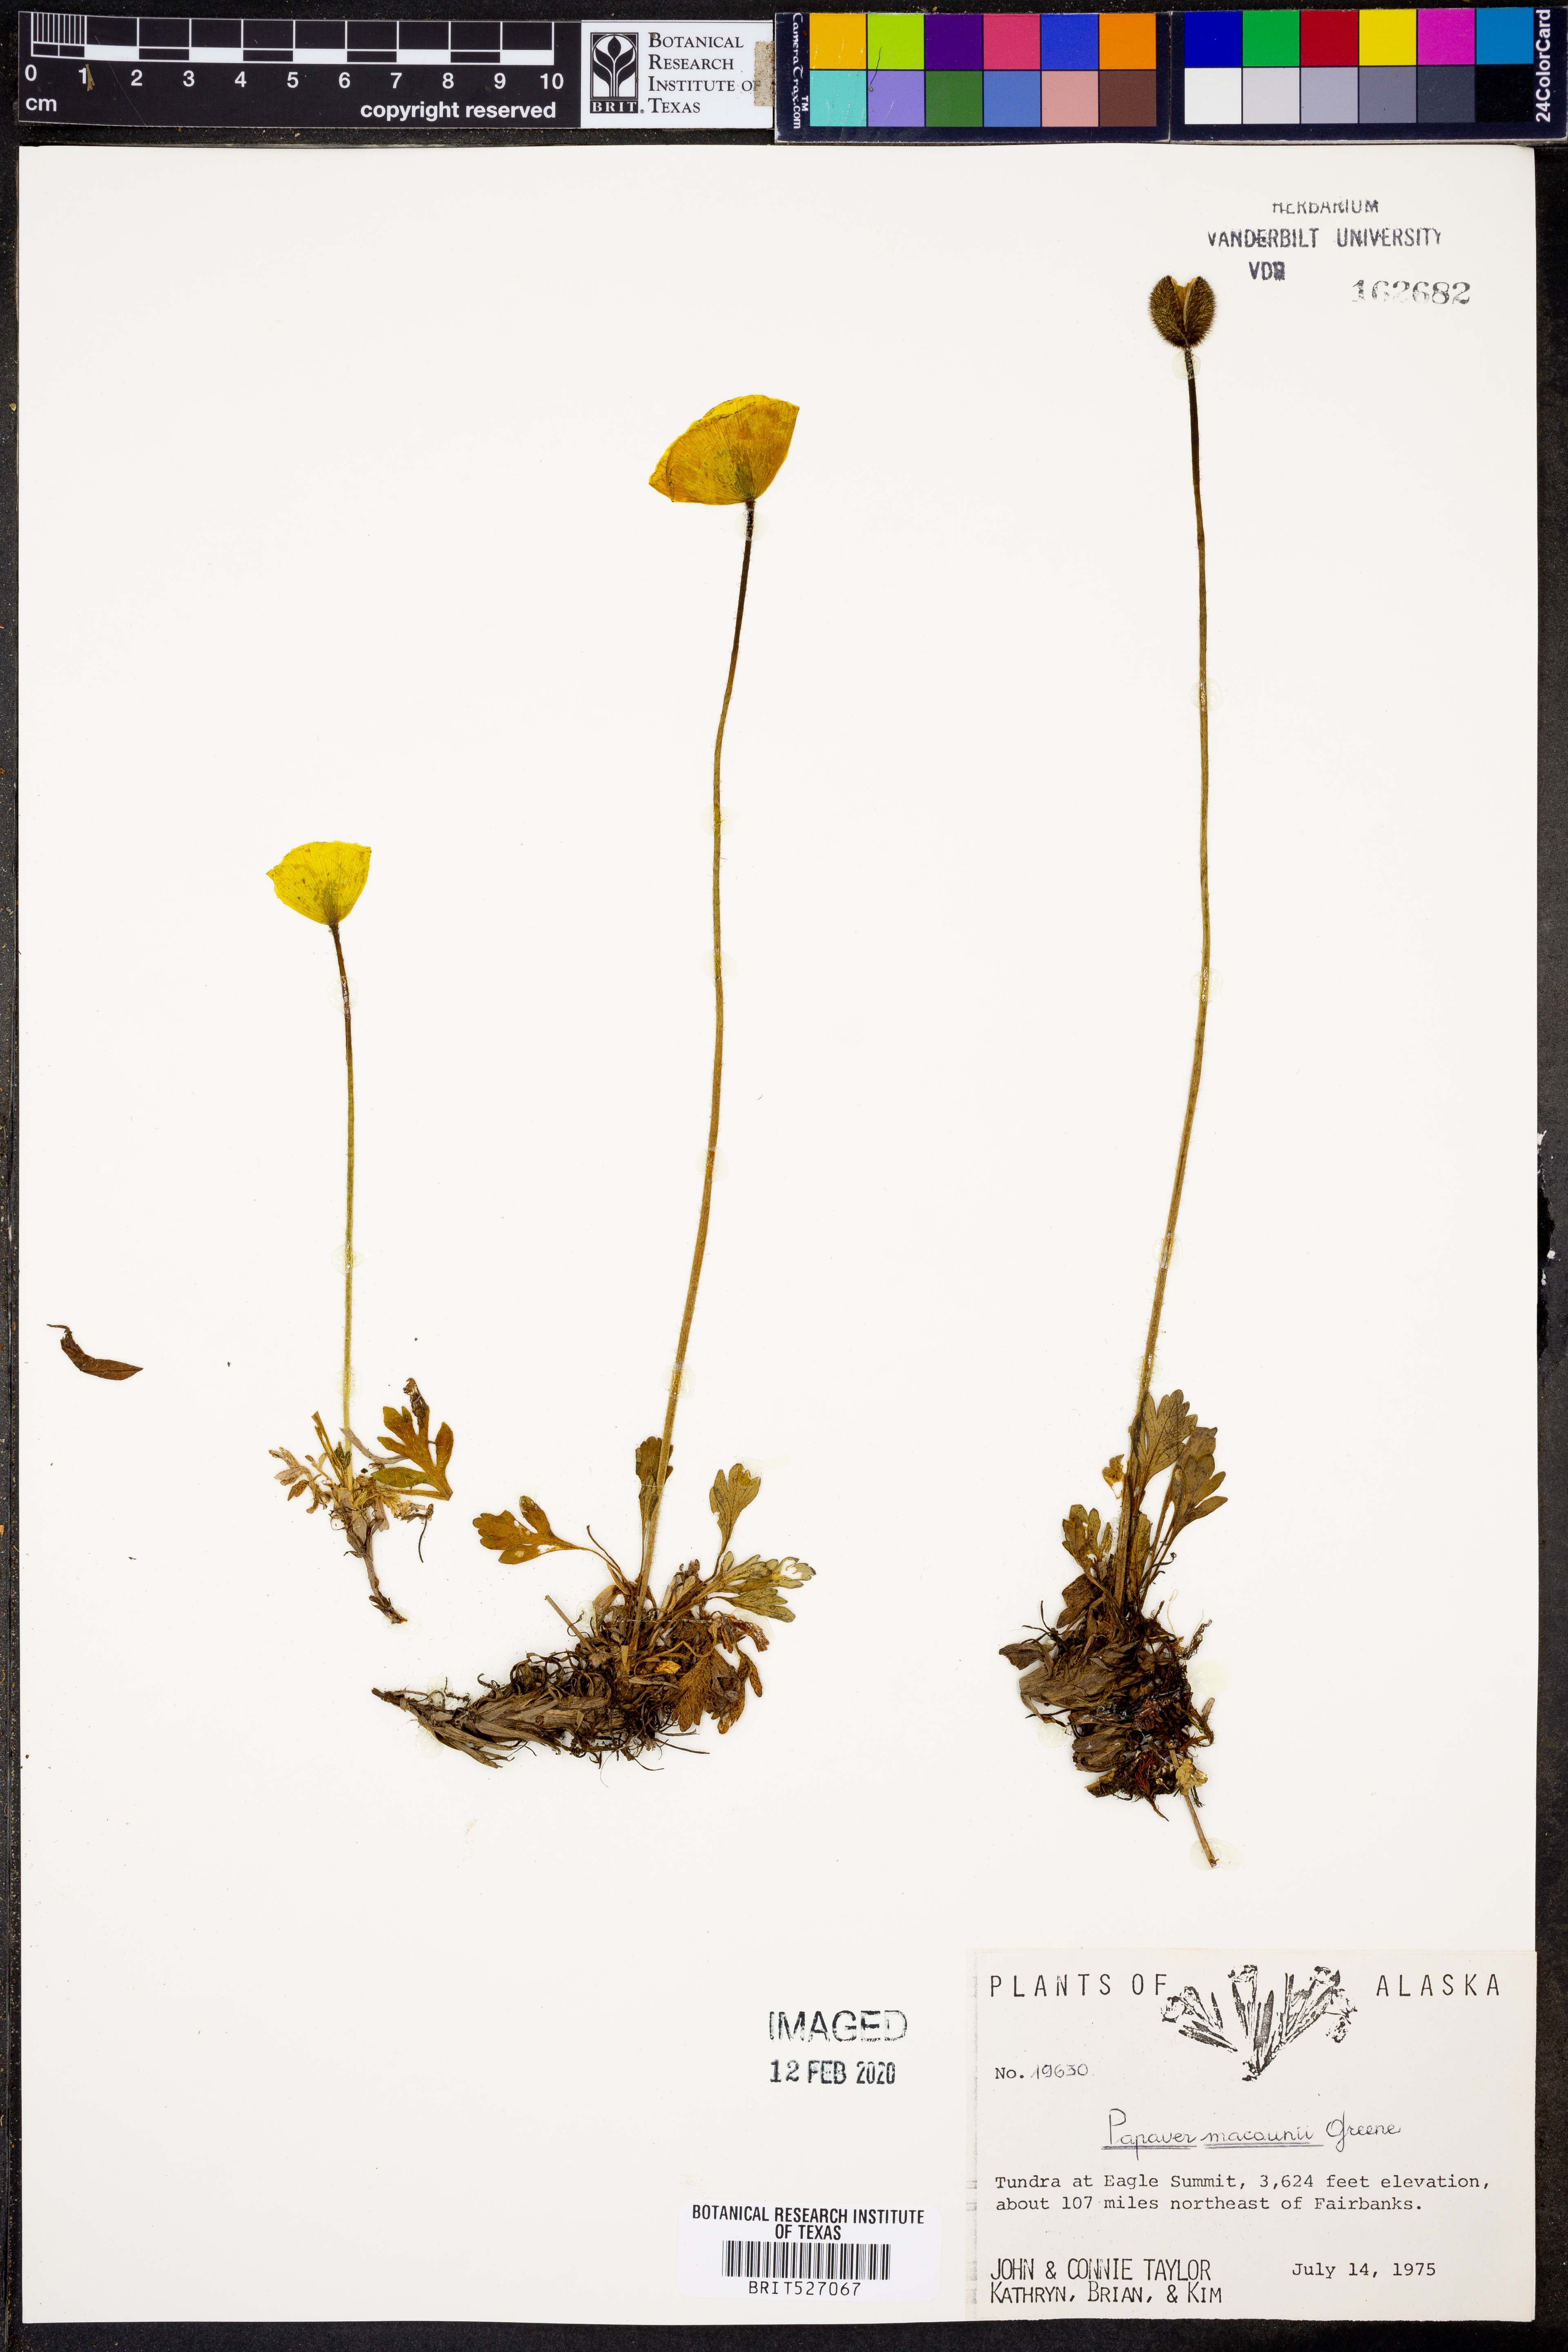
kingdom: Plantae
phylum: Tracheophyta
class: Magnoliopsida
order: Ranunculales
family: Papaveraceae
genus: Papaver
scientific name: Papaver macounii
